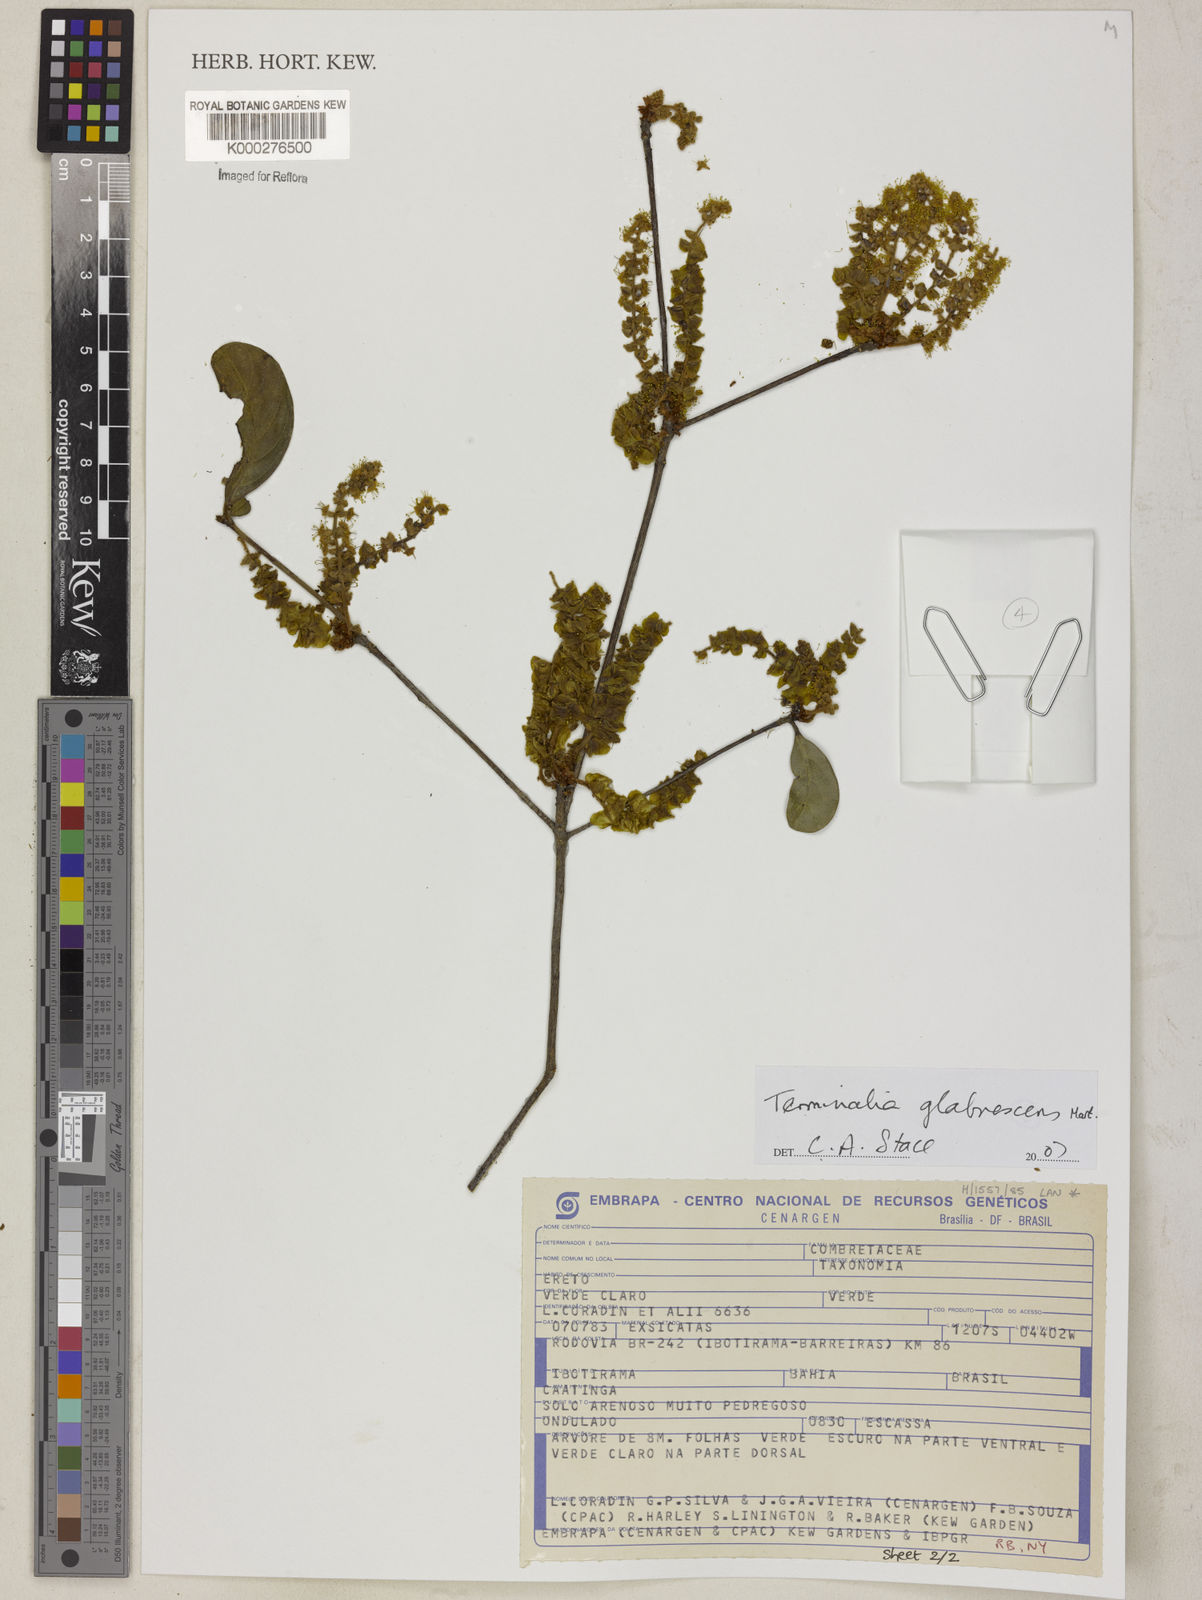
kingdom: Plantae
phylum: Tracheophyta
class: Magnoliopsida
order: Myrtales
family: Combretaceae
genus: Terminalia
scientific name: Terminalia glabrescens
